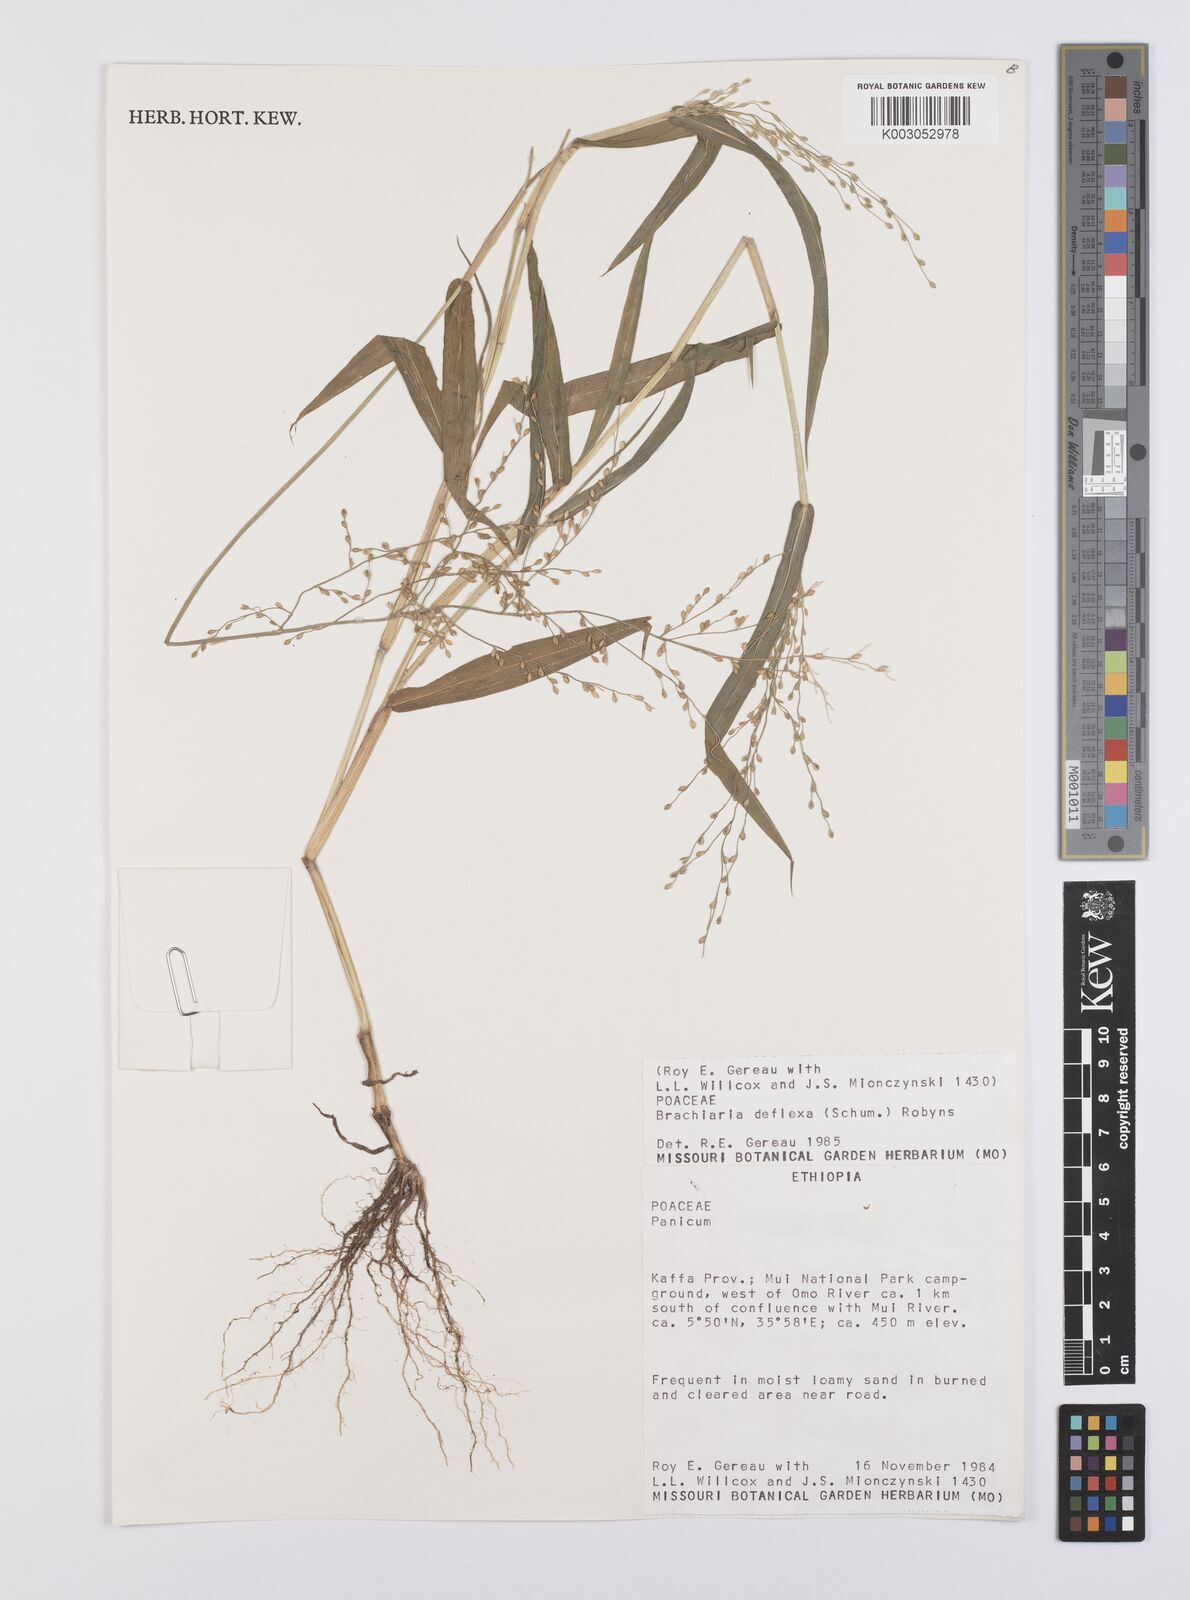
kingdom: Plantae
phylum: Tracheophyta
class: Liliopsida
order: Poales
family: Poaceae
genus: Urochloa
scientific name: Urochloa deflexa
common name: Guinea millet
